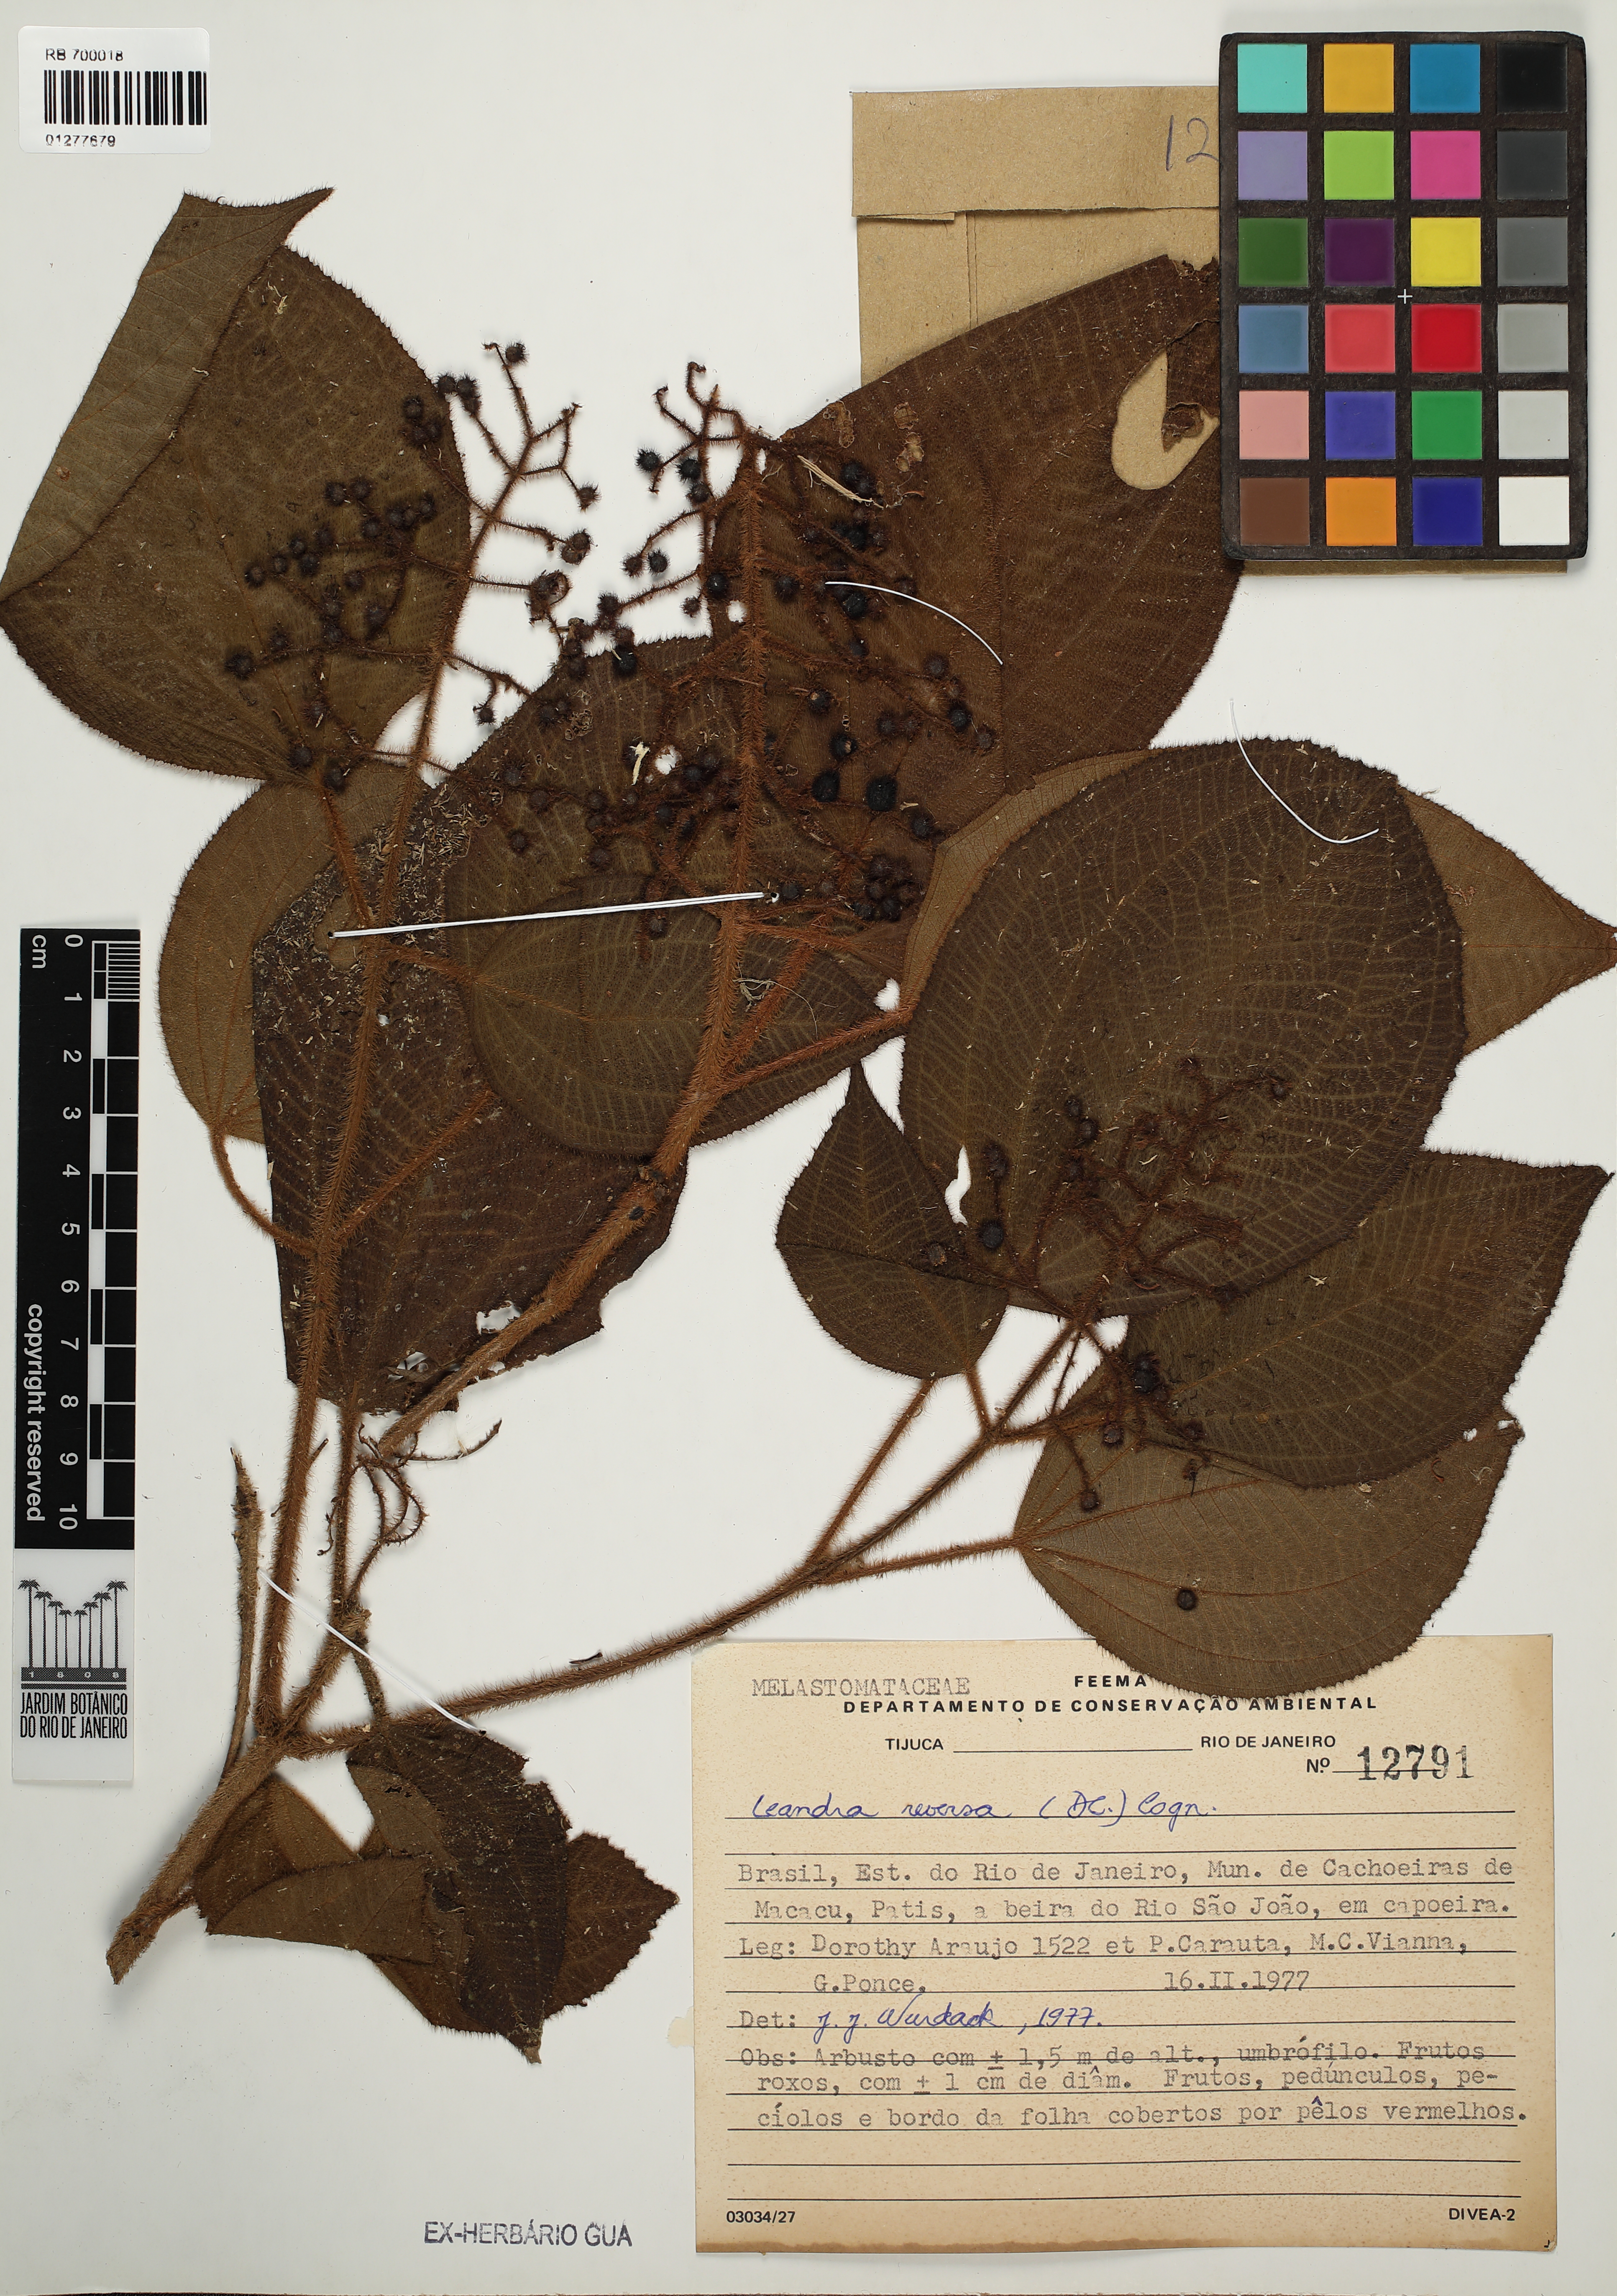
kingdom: Plantae
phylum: Tracheophyta
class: Magnoliopsida
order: Myrtales
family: Melastomataceae
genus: Miconia
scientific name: Miconia reversa
